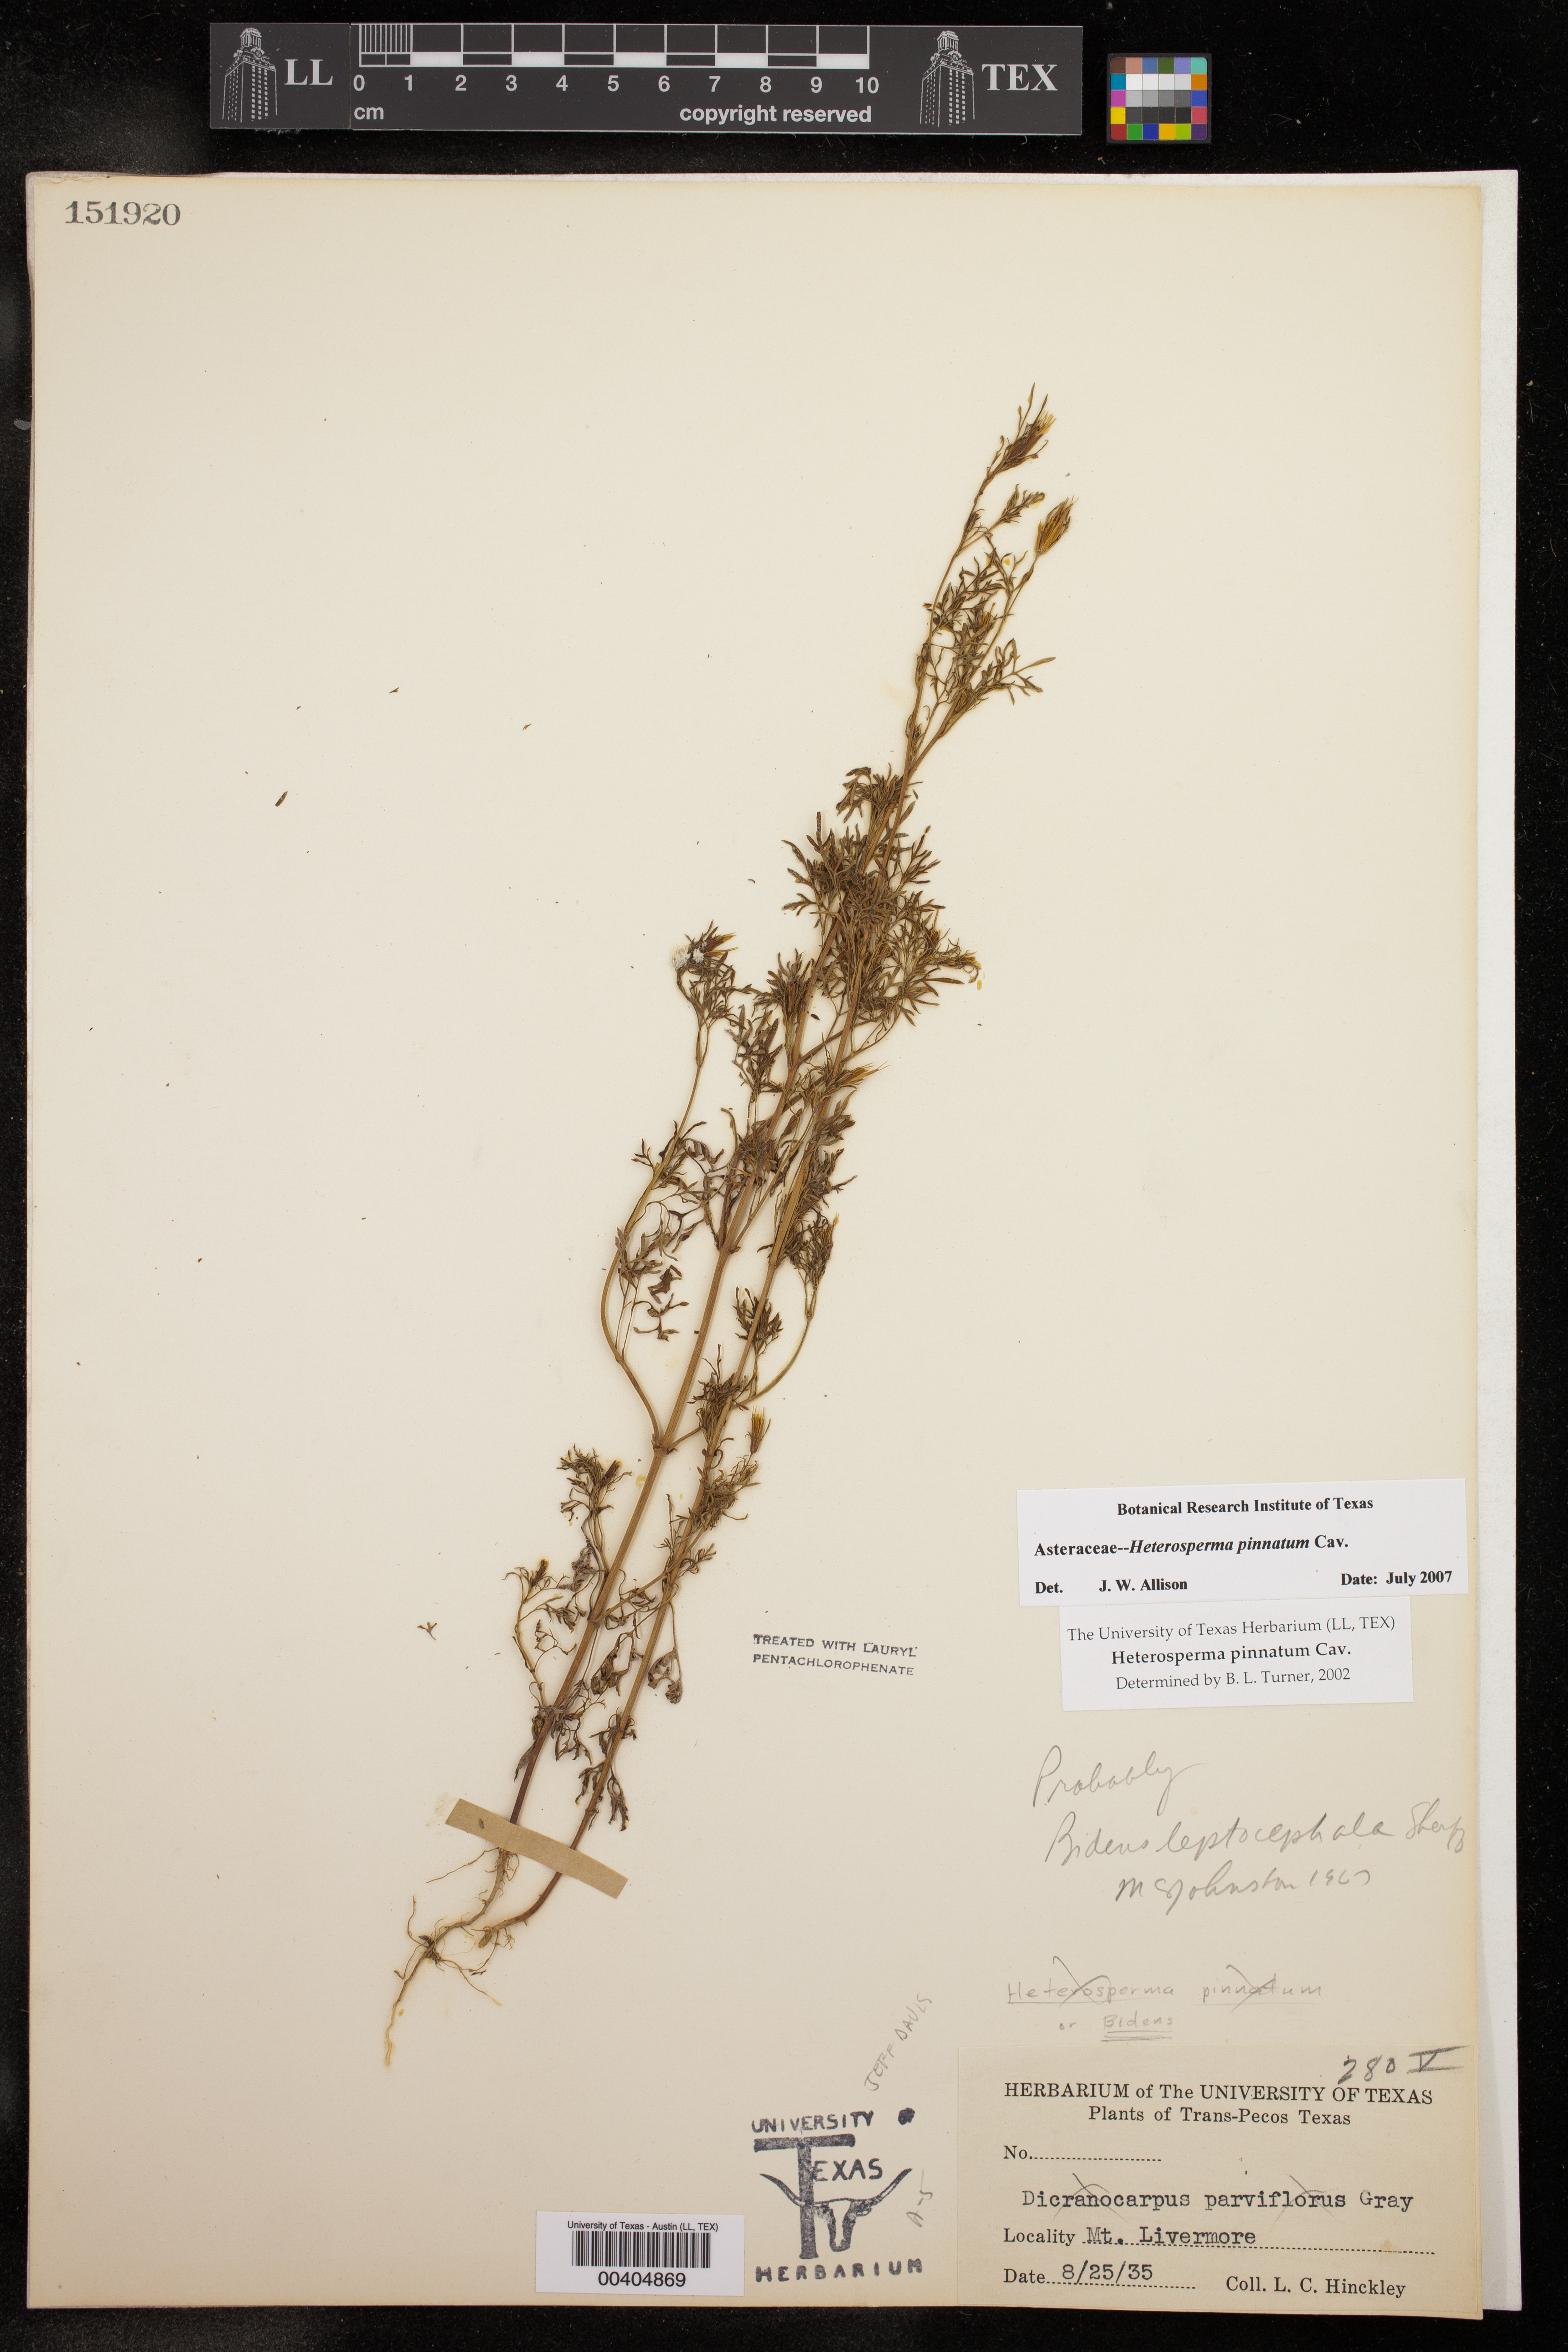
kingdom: Plantae
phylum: Tracheophyta
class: Magnoliopsida
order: Asterales
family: Asteraceae
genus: Heterosperma
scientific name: Heterosperma pinnatum
